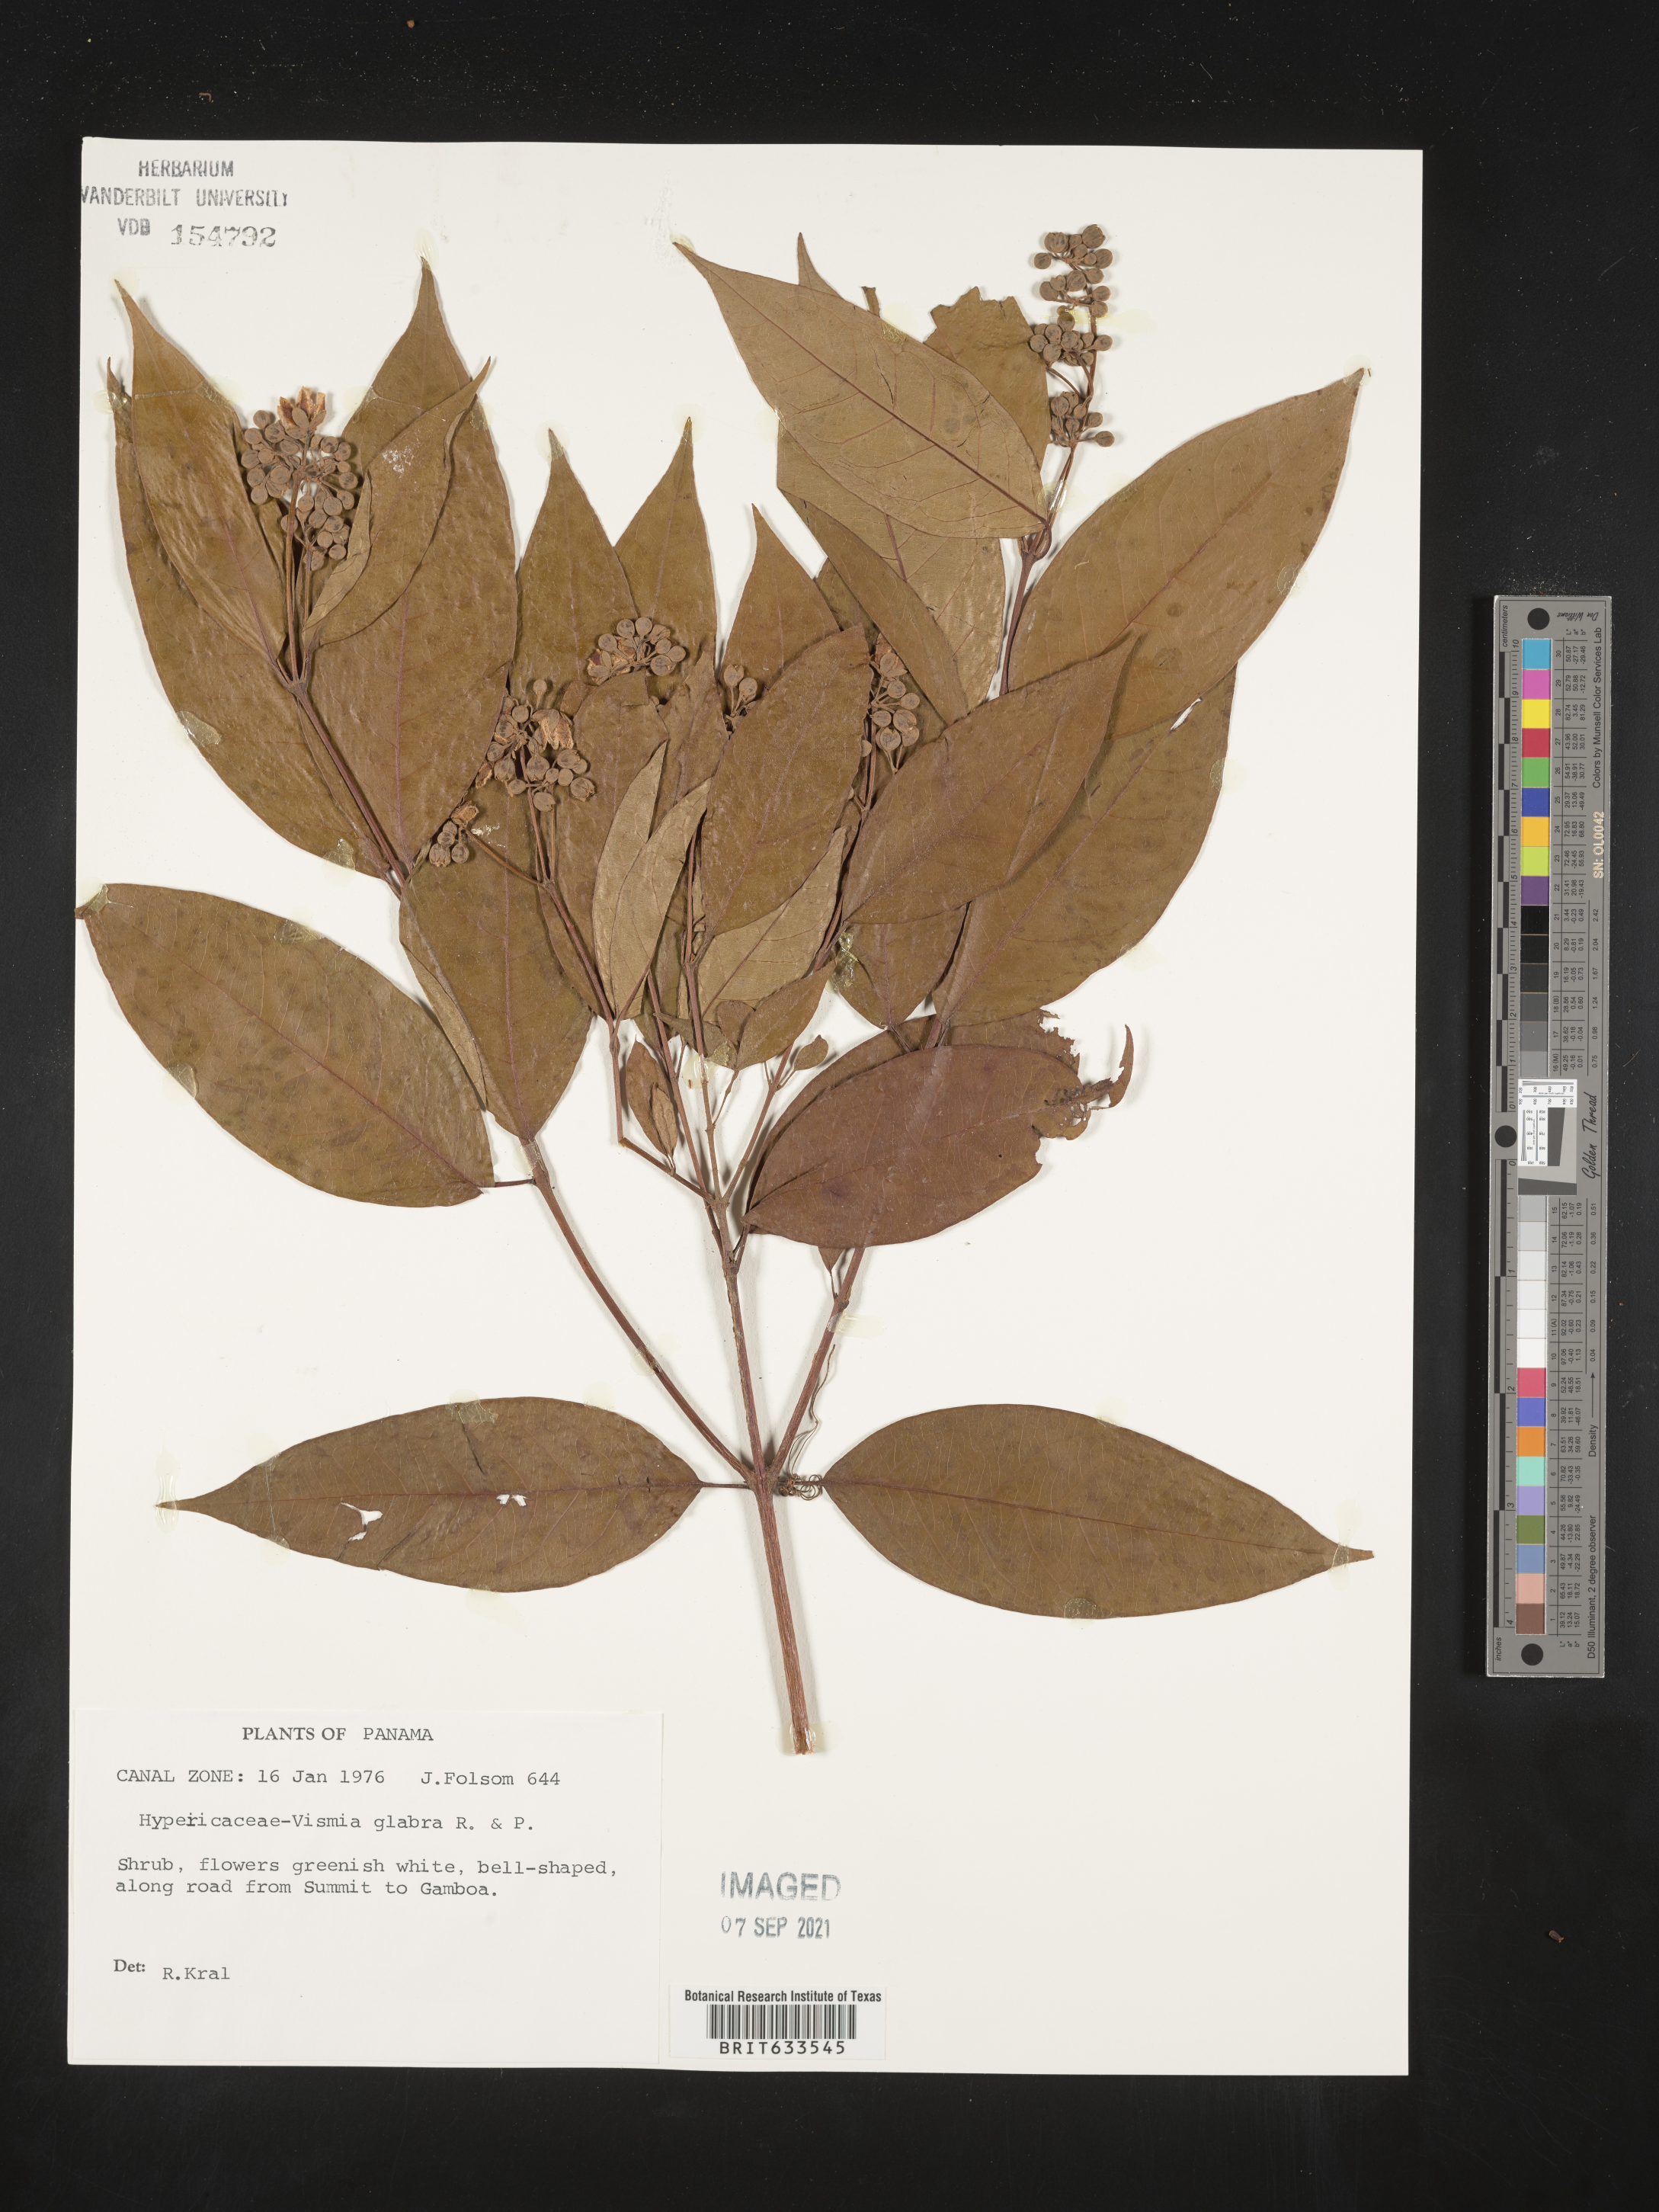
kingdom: Plantae
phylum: Tracheophyta
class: Magnoliopsida
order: Malpighiales
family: Hypericaceae
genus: Vismia
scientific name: Vismia
